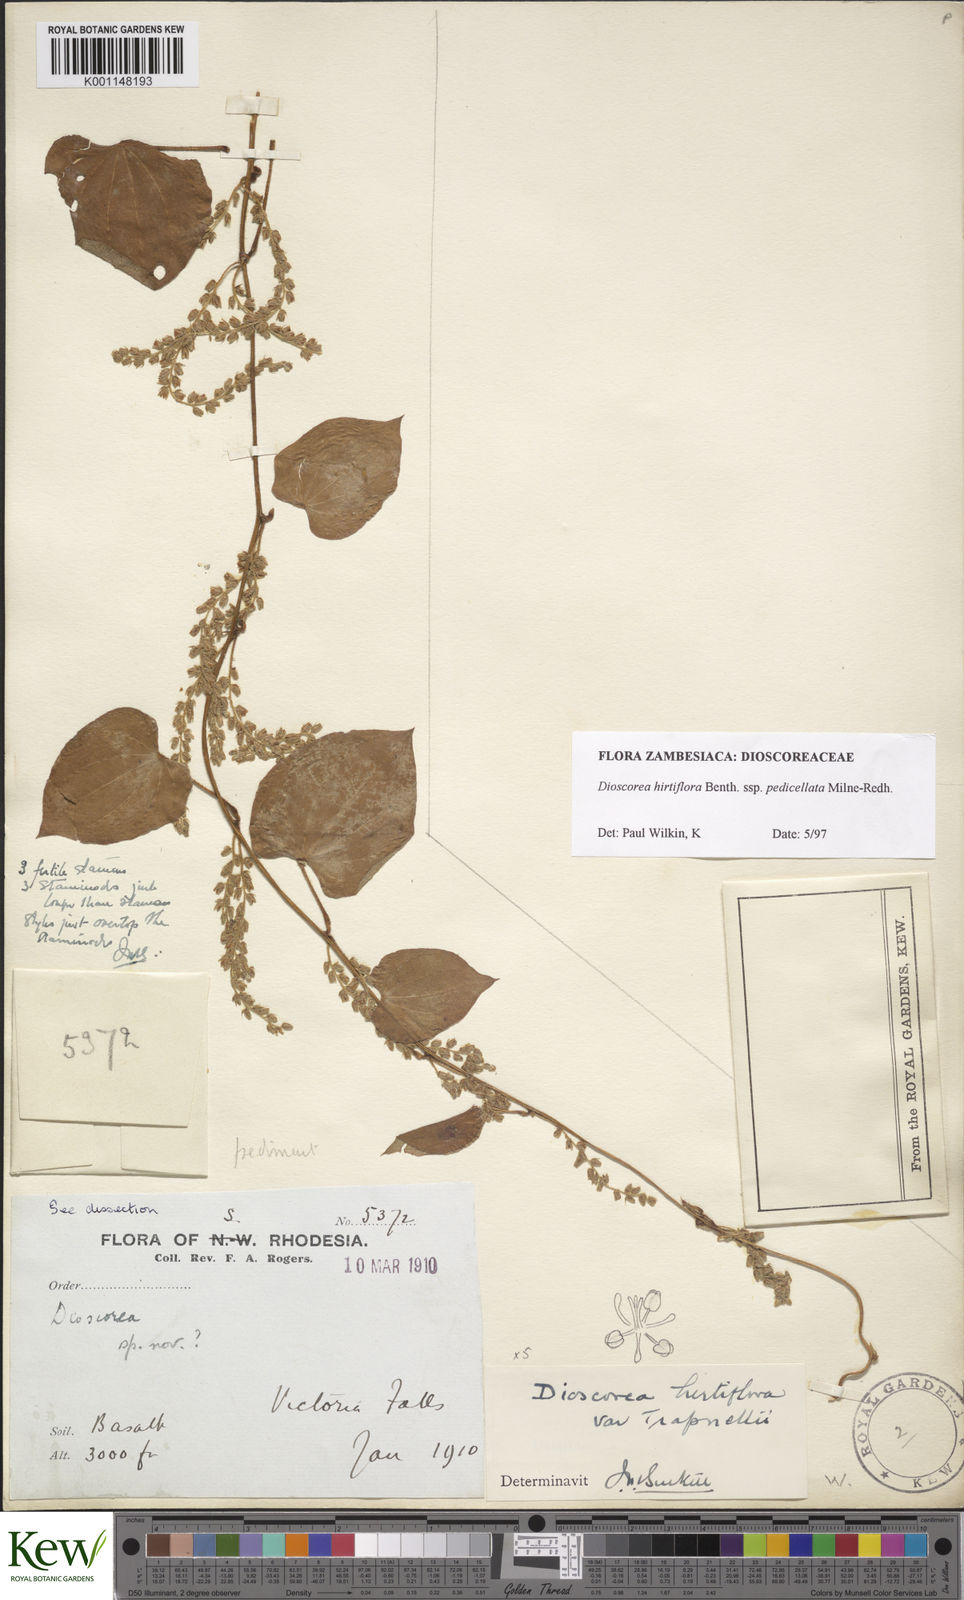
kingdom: Plantae
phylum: Tracheophyta
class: Liliopsida
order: Dioscoreales
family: Dioscoreaceae
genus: Dioscorea
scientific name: Dioscorea hirtiflora
